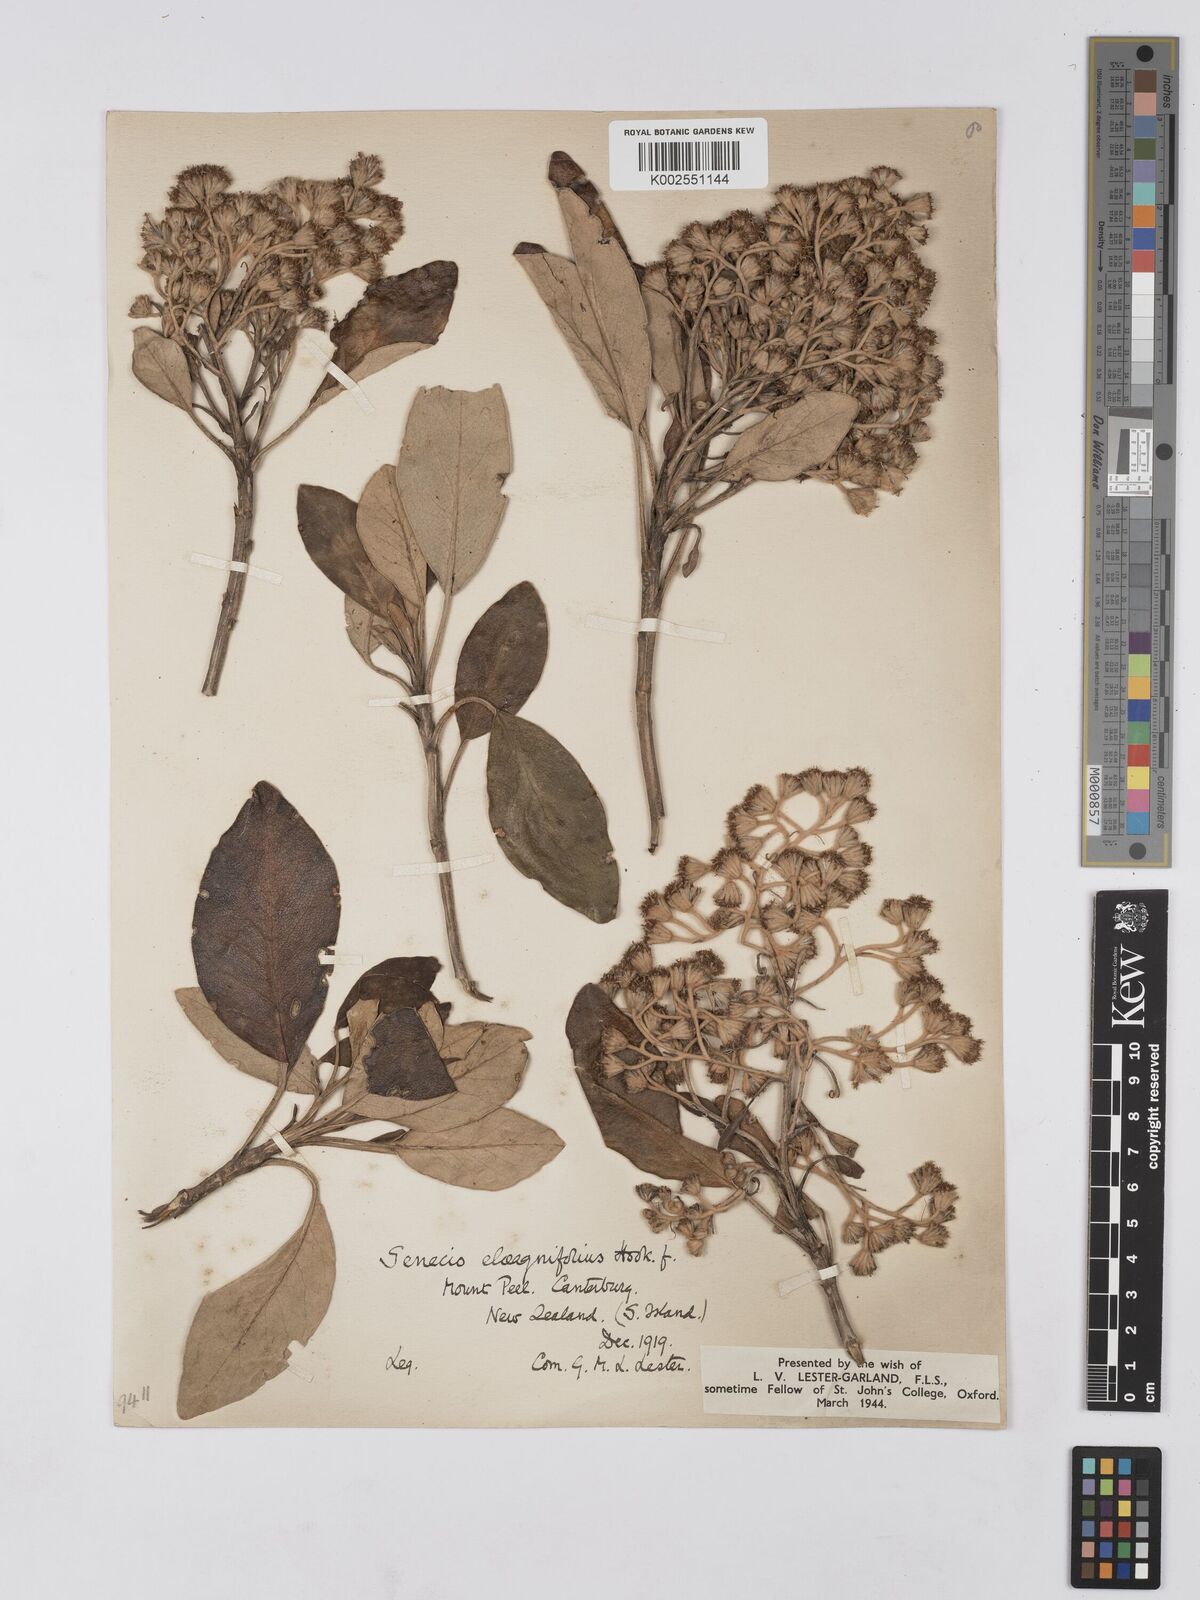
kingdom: Plantae
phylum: Tracheophyta
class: Magnoliopsida
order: Asterales
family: Asteraceae
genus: Brachyglottis
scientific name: Brachyglottis buchananii
